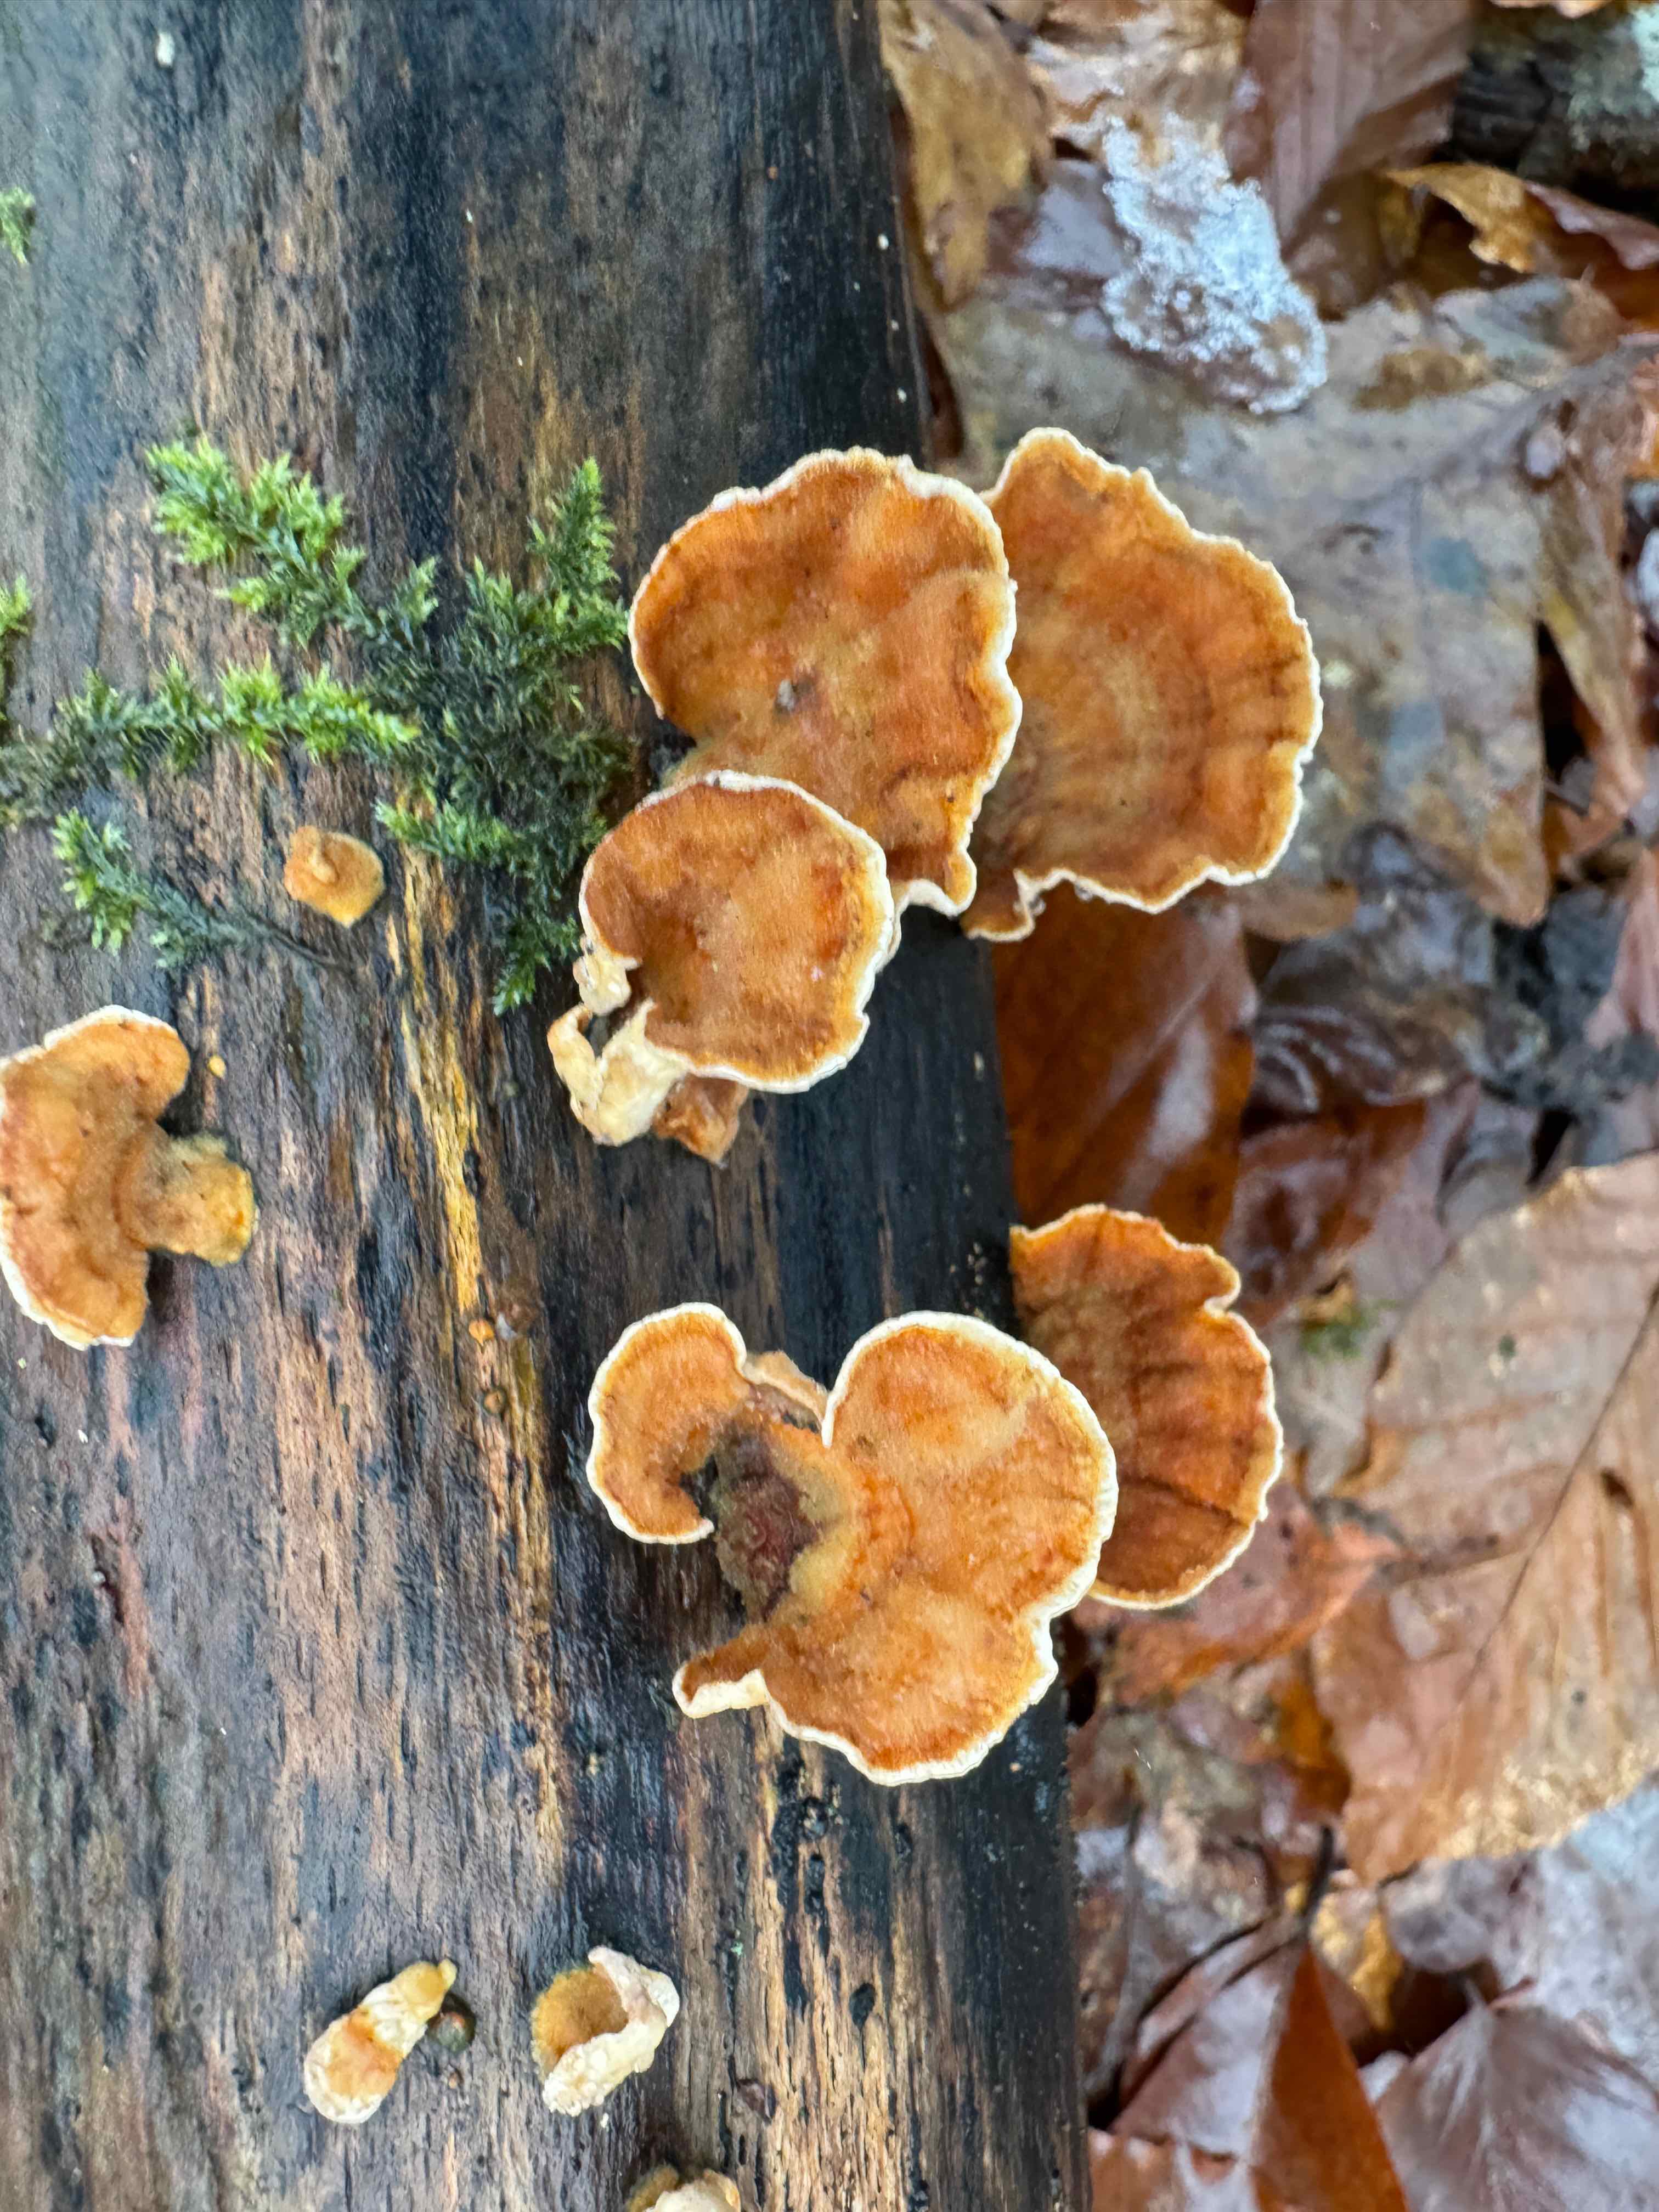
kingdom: Fungi
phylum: Basidiomycota
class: Agaricomycetes
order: Russulales
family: Stereaceae
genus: Stereum
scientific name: Stereum subtomentosum
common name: smuk lædersvamp
